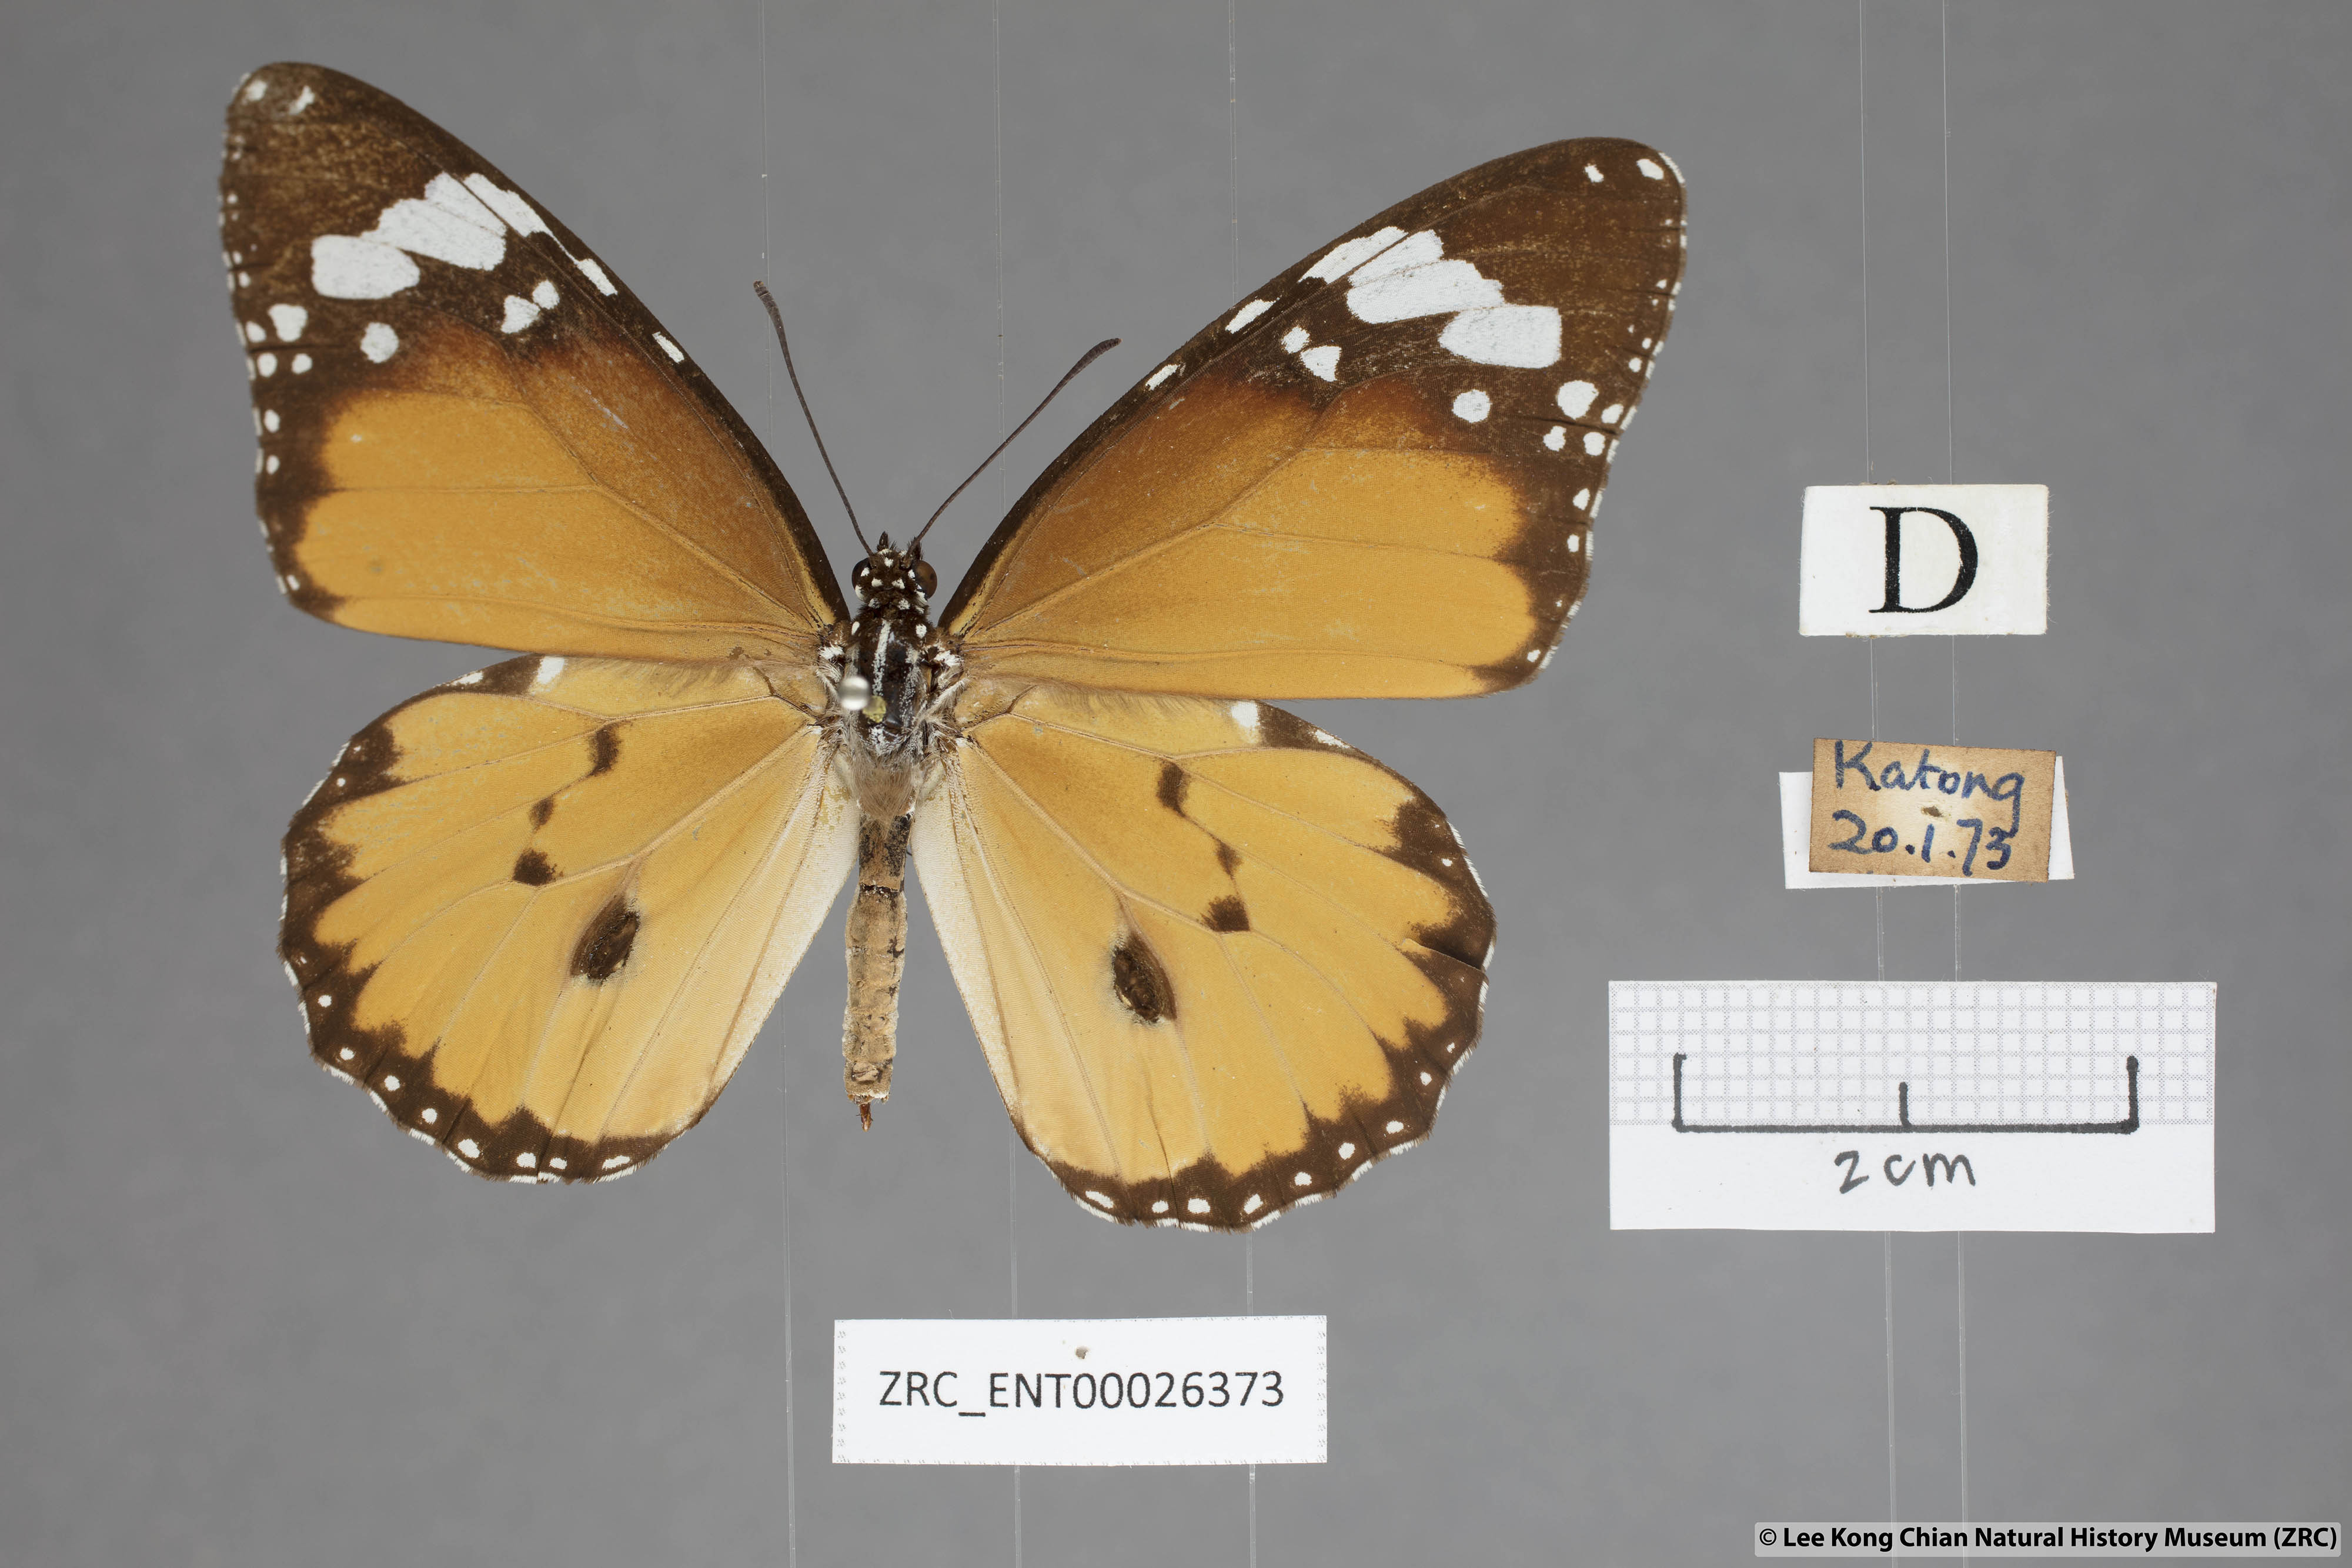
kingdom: Animalia
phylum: Arthropoda
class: Insecta
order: Lepidoptera
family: Nymphalidae
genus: Danaus
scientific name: Danaus chrysippus
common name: Plain tiger
